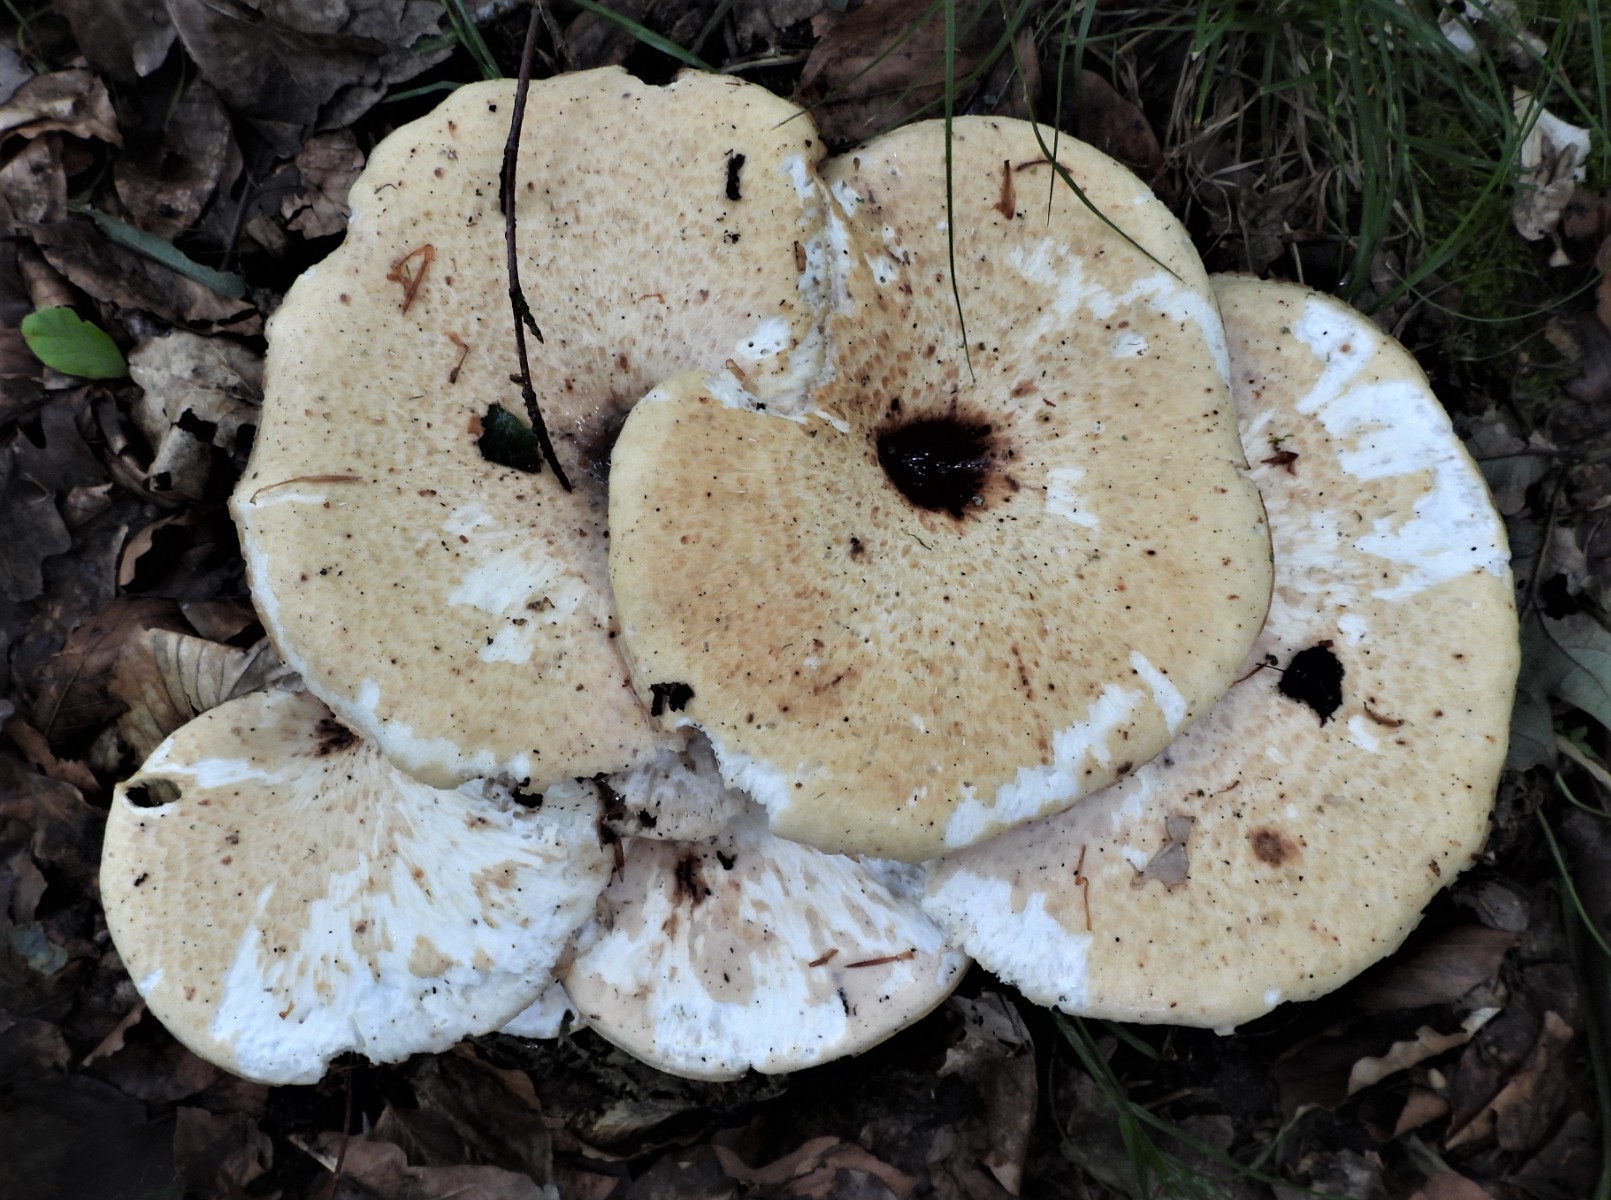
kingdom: Fungi
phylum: Basidiomycota
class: Agaricomycetes
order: Polyporales
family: Polyporaceae
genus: Cerioporus
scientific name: Cerioporus squamosus
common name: skællet stilkporesvamp
